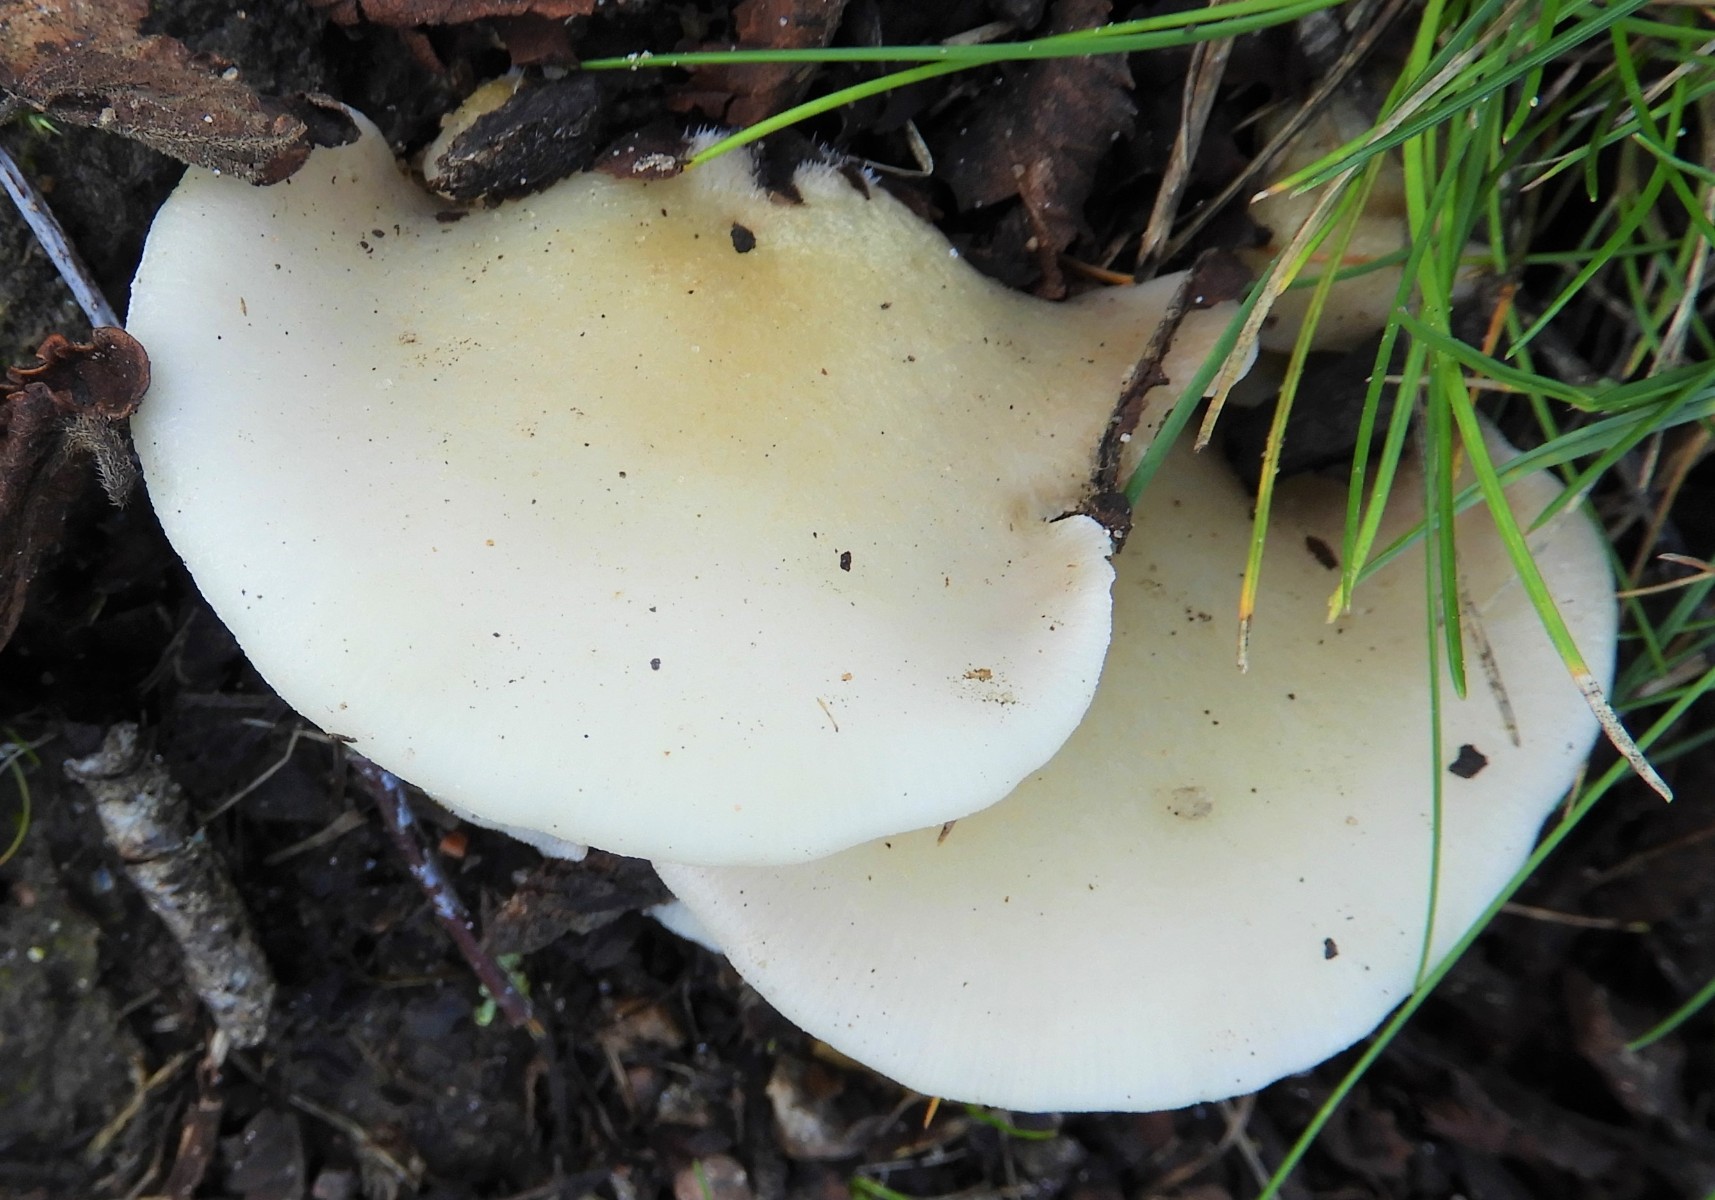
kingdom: Fungi
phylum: Basidiomycota
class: Agaricomycetes
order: Agaricales
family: Crepidotaceae
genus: Crepidotus
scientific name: Crepidotus mollis
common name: blød muslingesvamp
